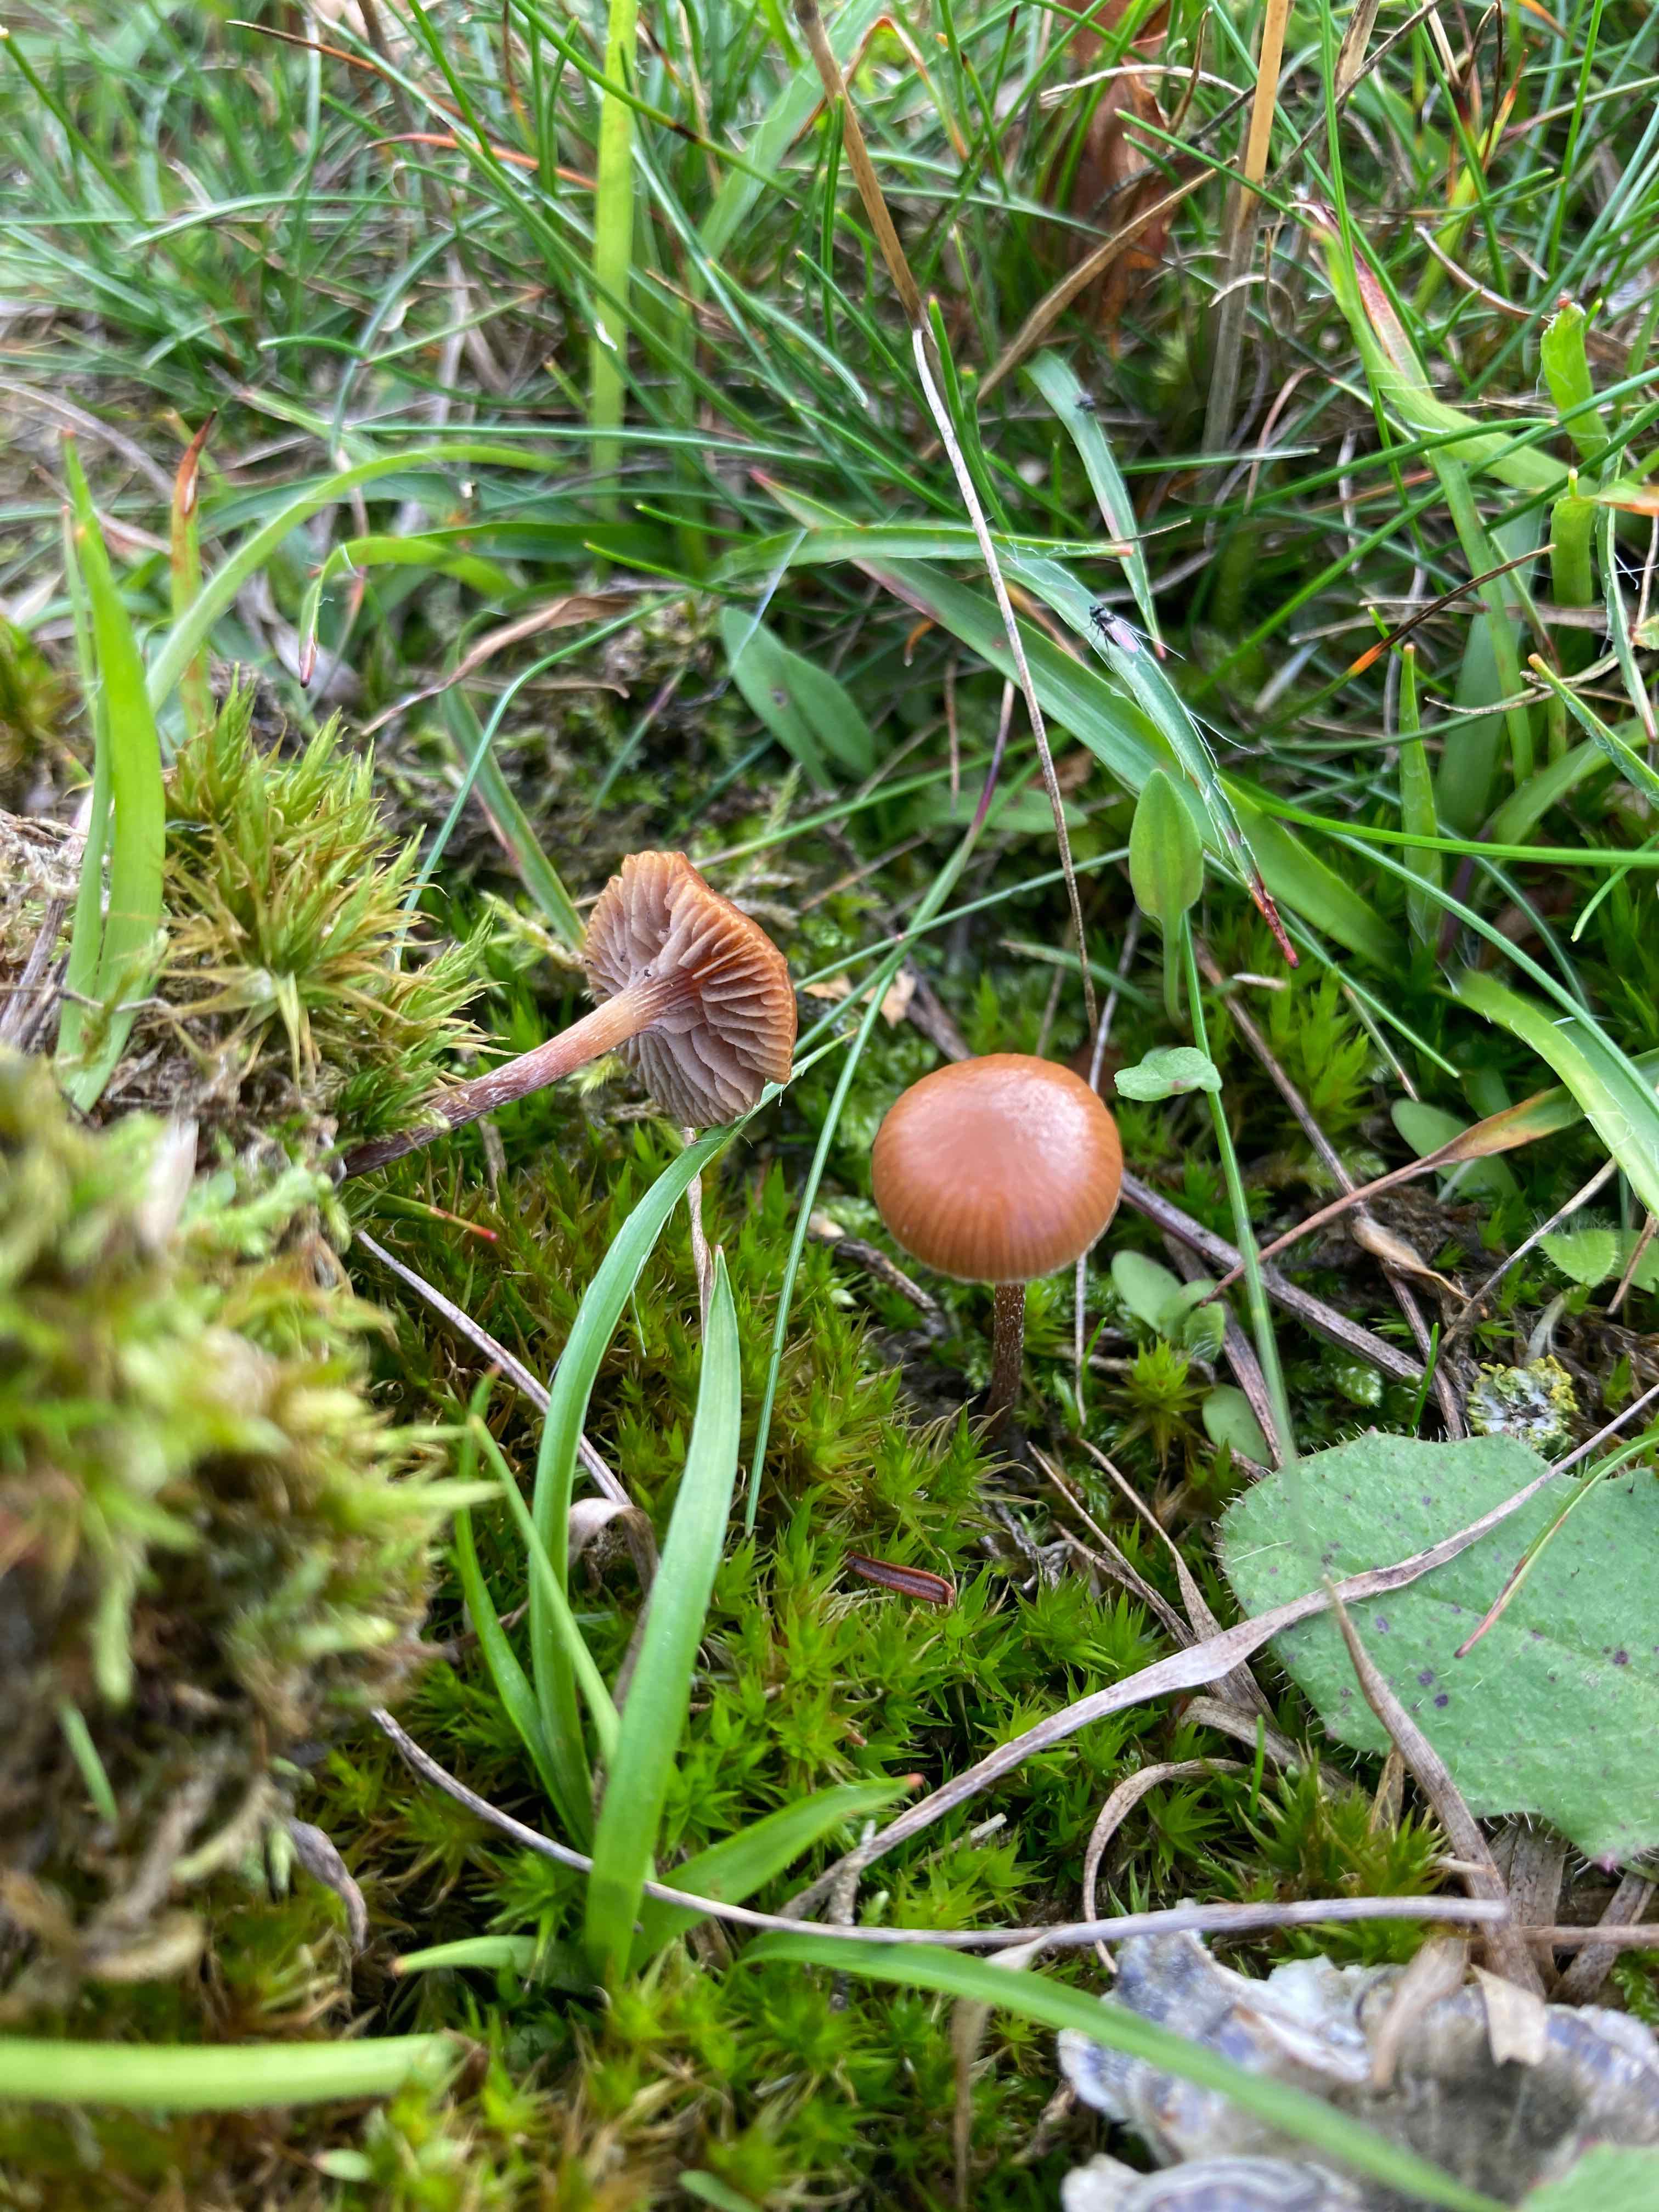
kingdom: Fungi
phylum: Basidiomycota
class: Agaricomycetes
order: Agaricales
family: Strophariaceae
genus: Deconica
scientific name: Deconica montana
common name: rødbrun stråhat
